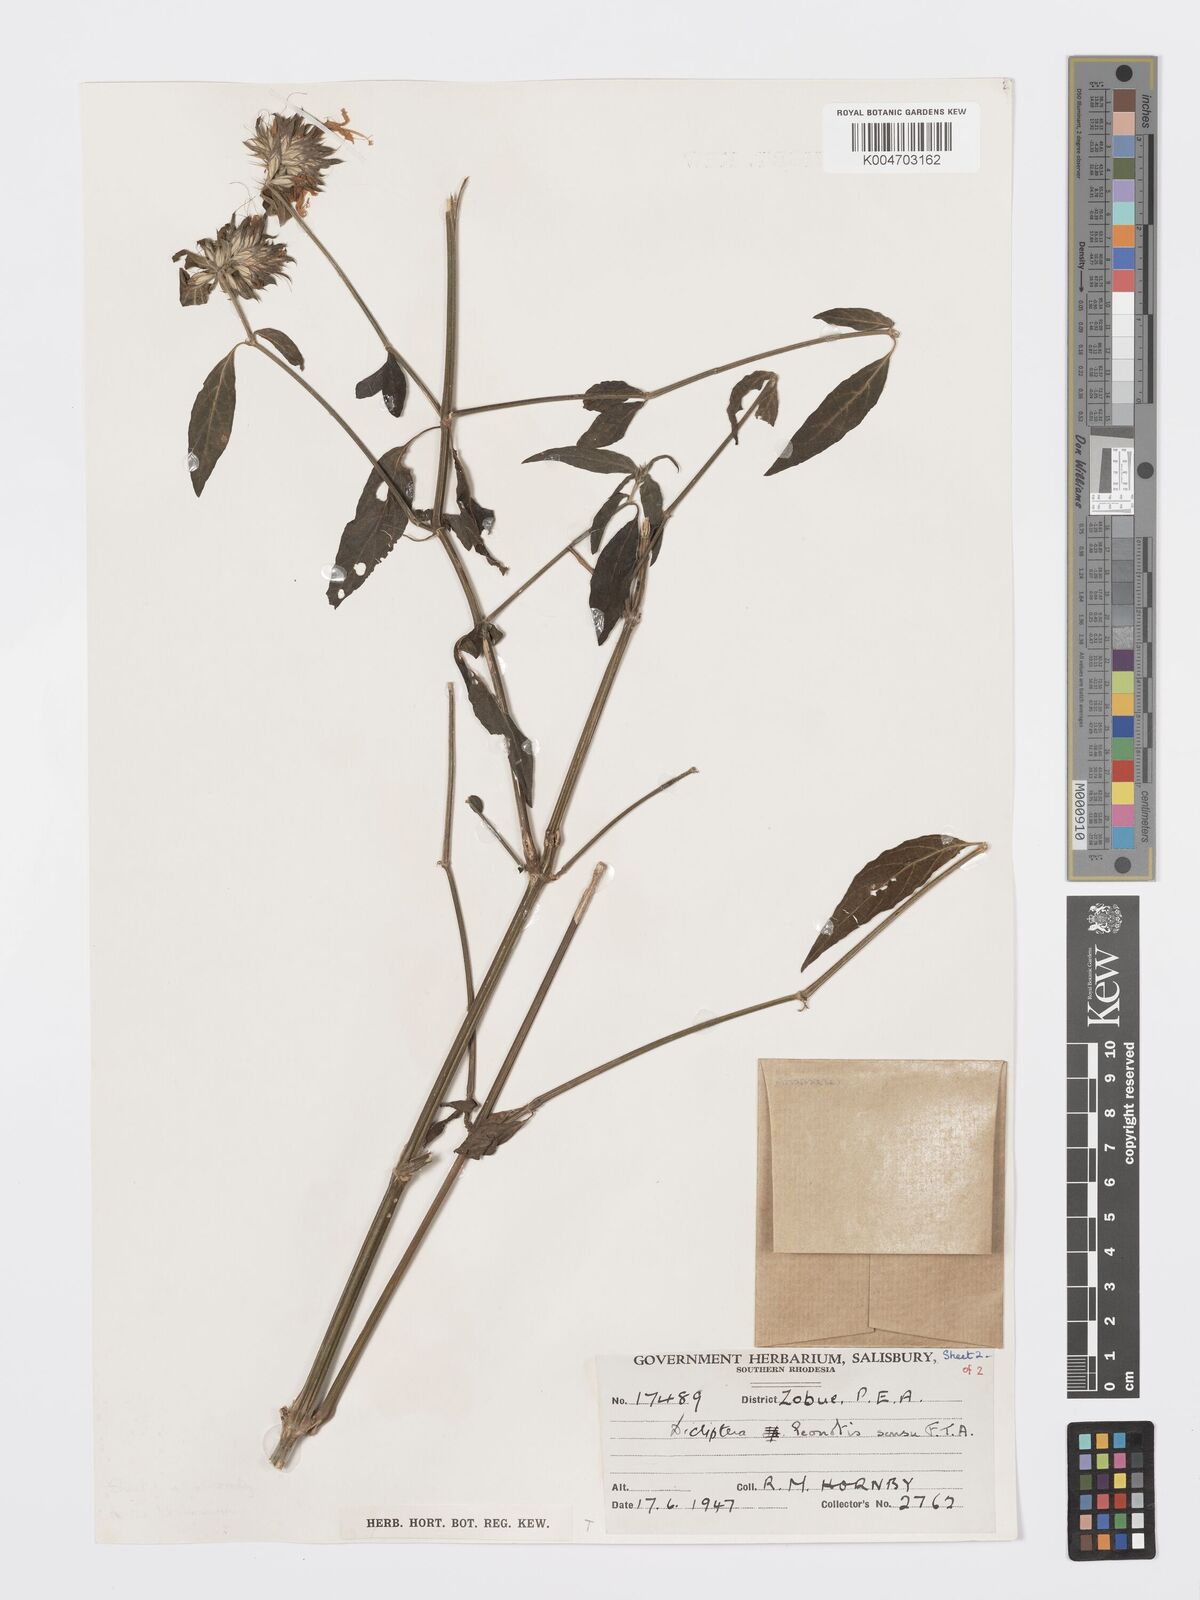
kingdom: Plantae
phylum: Tracheophyta
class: Magnoliopsida
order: Lamiales
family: Acanthaceae
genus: Dicliptera
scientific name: Dicliptera clinopodia
